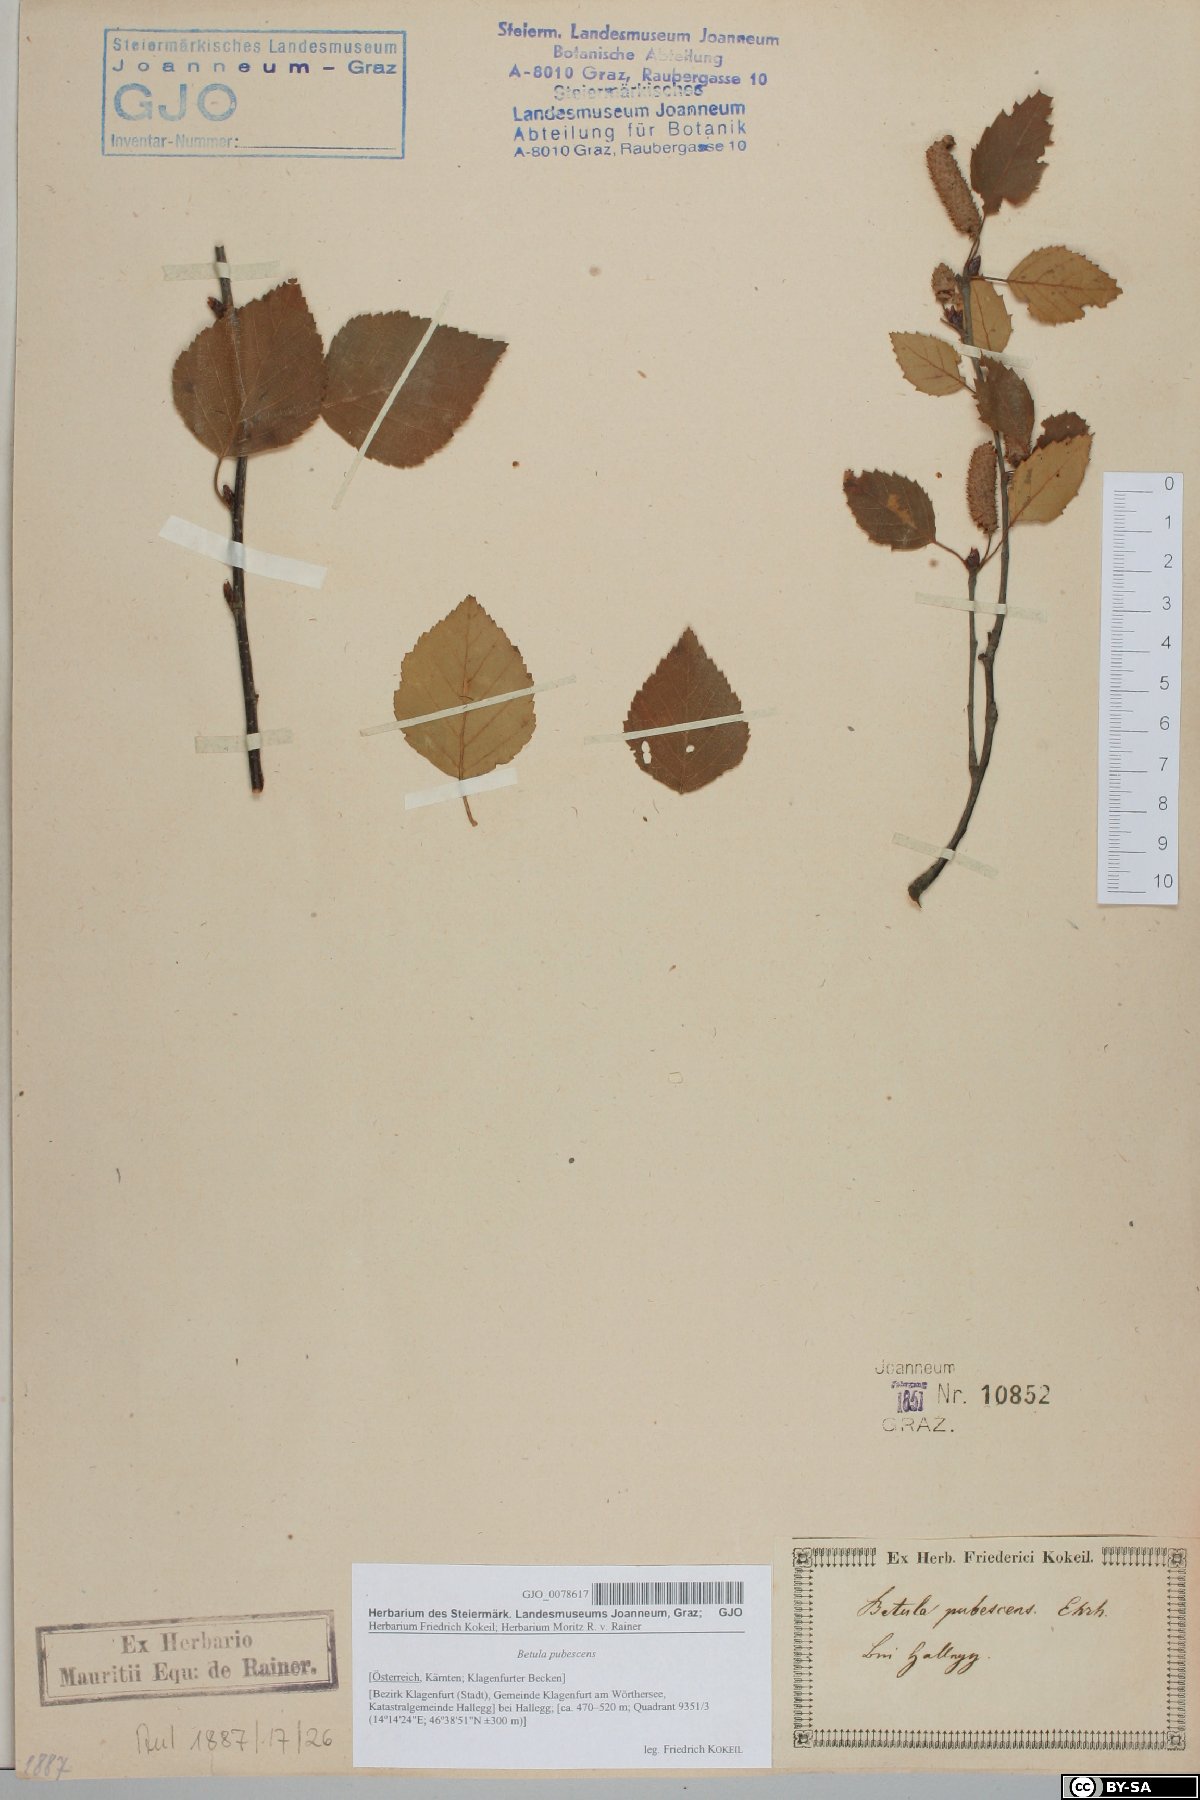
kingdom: Plantae
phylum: Tracheophyta
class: Magnoliopsida
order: Fagales
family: Betulaceae
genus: Betula
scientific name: Betula pubescens
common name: Downy birch
